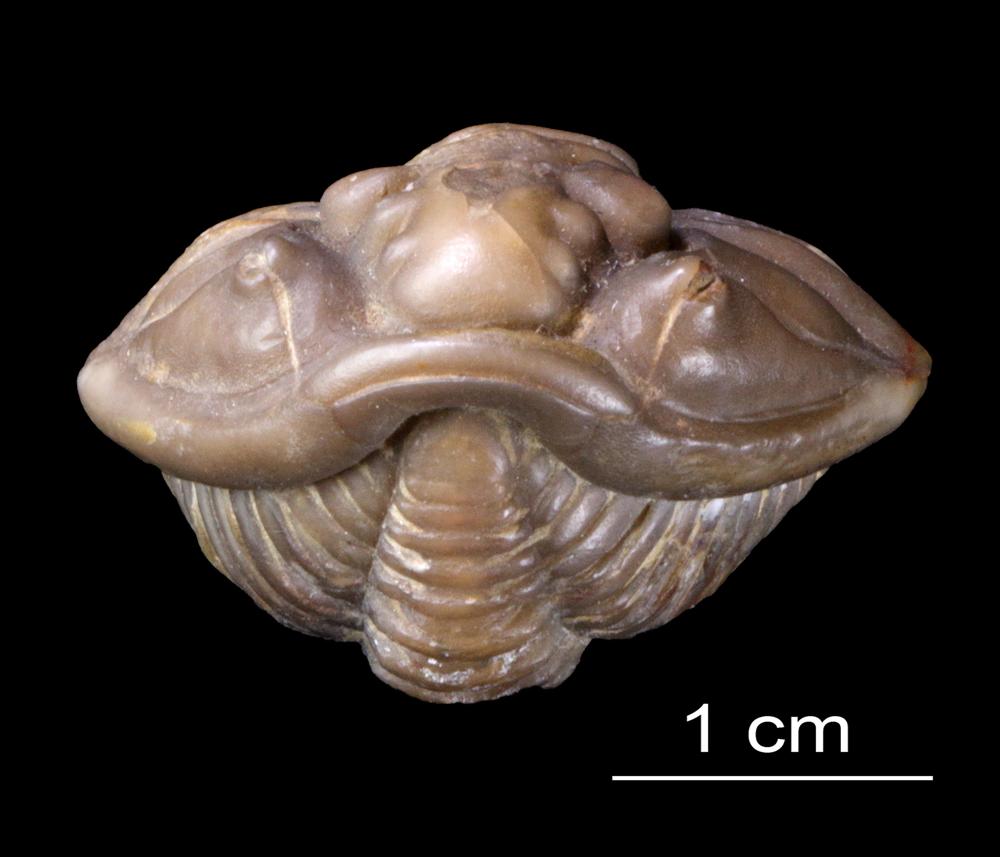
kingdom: Animalia
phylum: Arthropoda
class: Trilobita
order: Phacopida
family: Calymenidae
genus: Calymene
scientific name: Calymene
